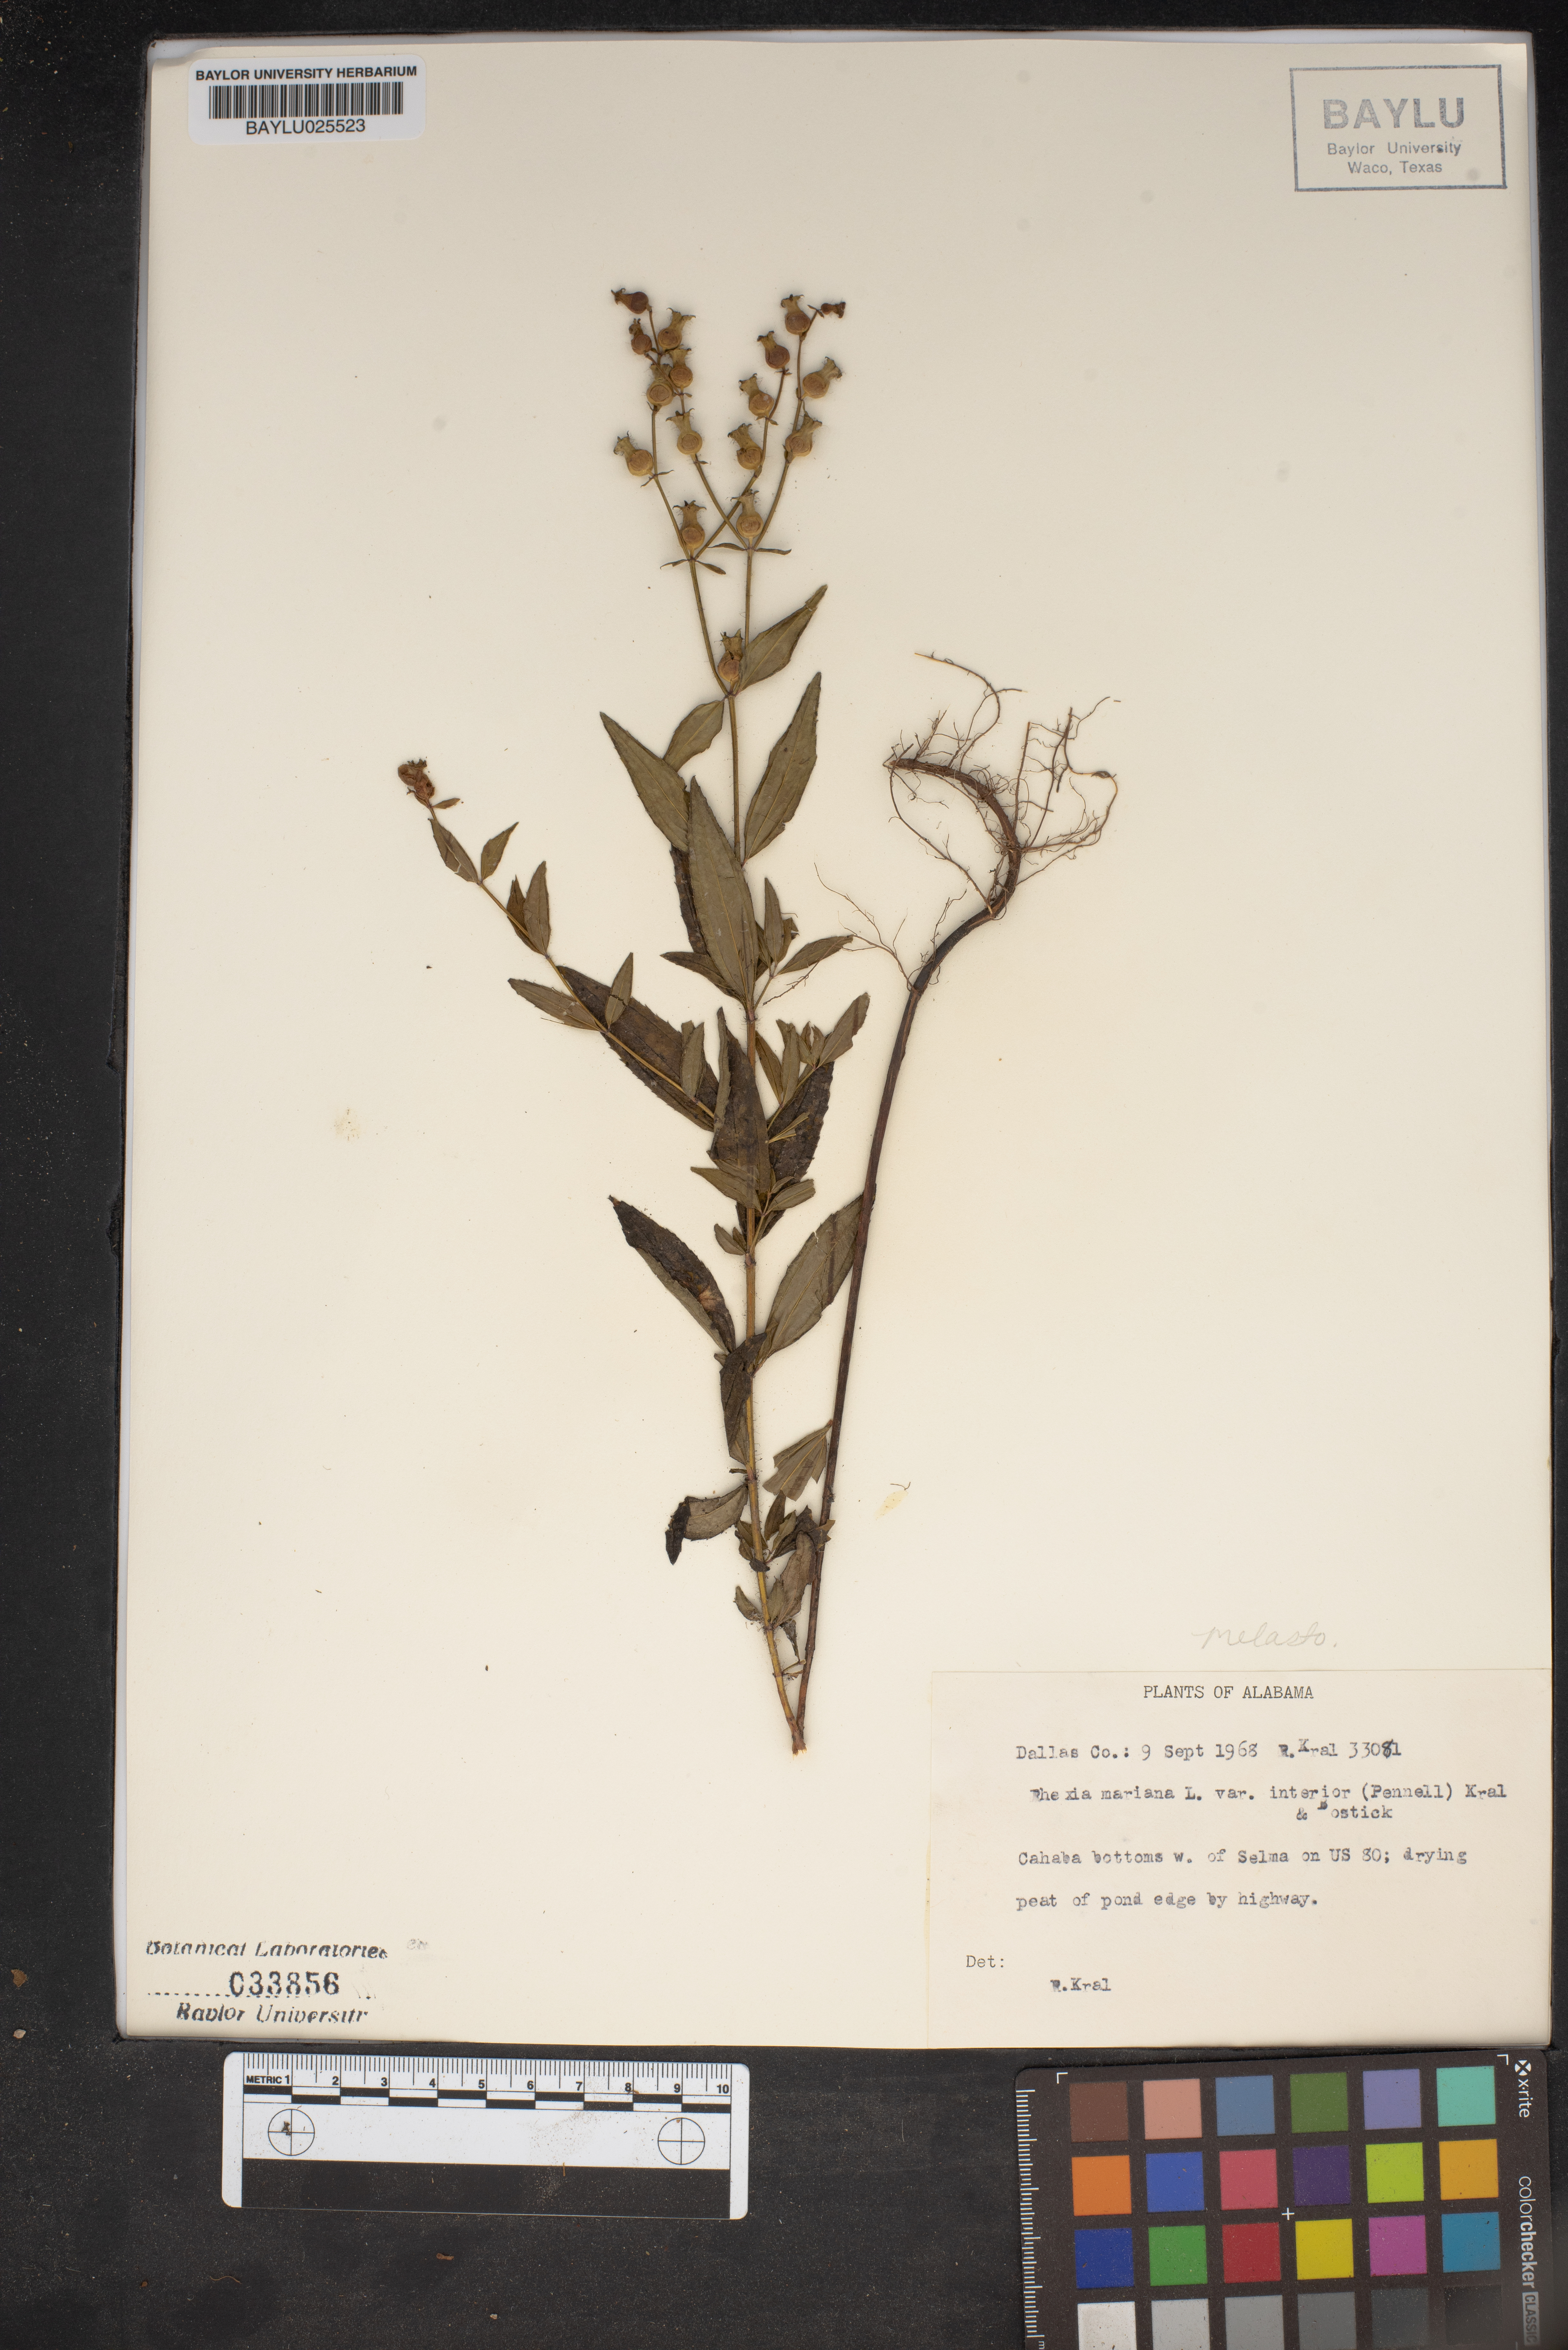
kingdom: Plantae
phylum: Tracheophyta
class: Magnoliopsida
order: Myrtales
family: Melastomataceae
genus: Rhexia
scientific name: Rhexia interior
